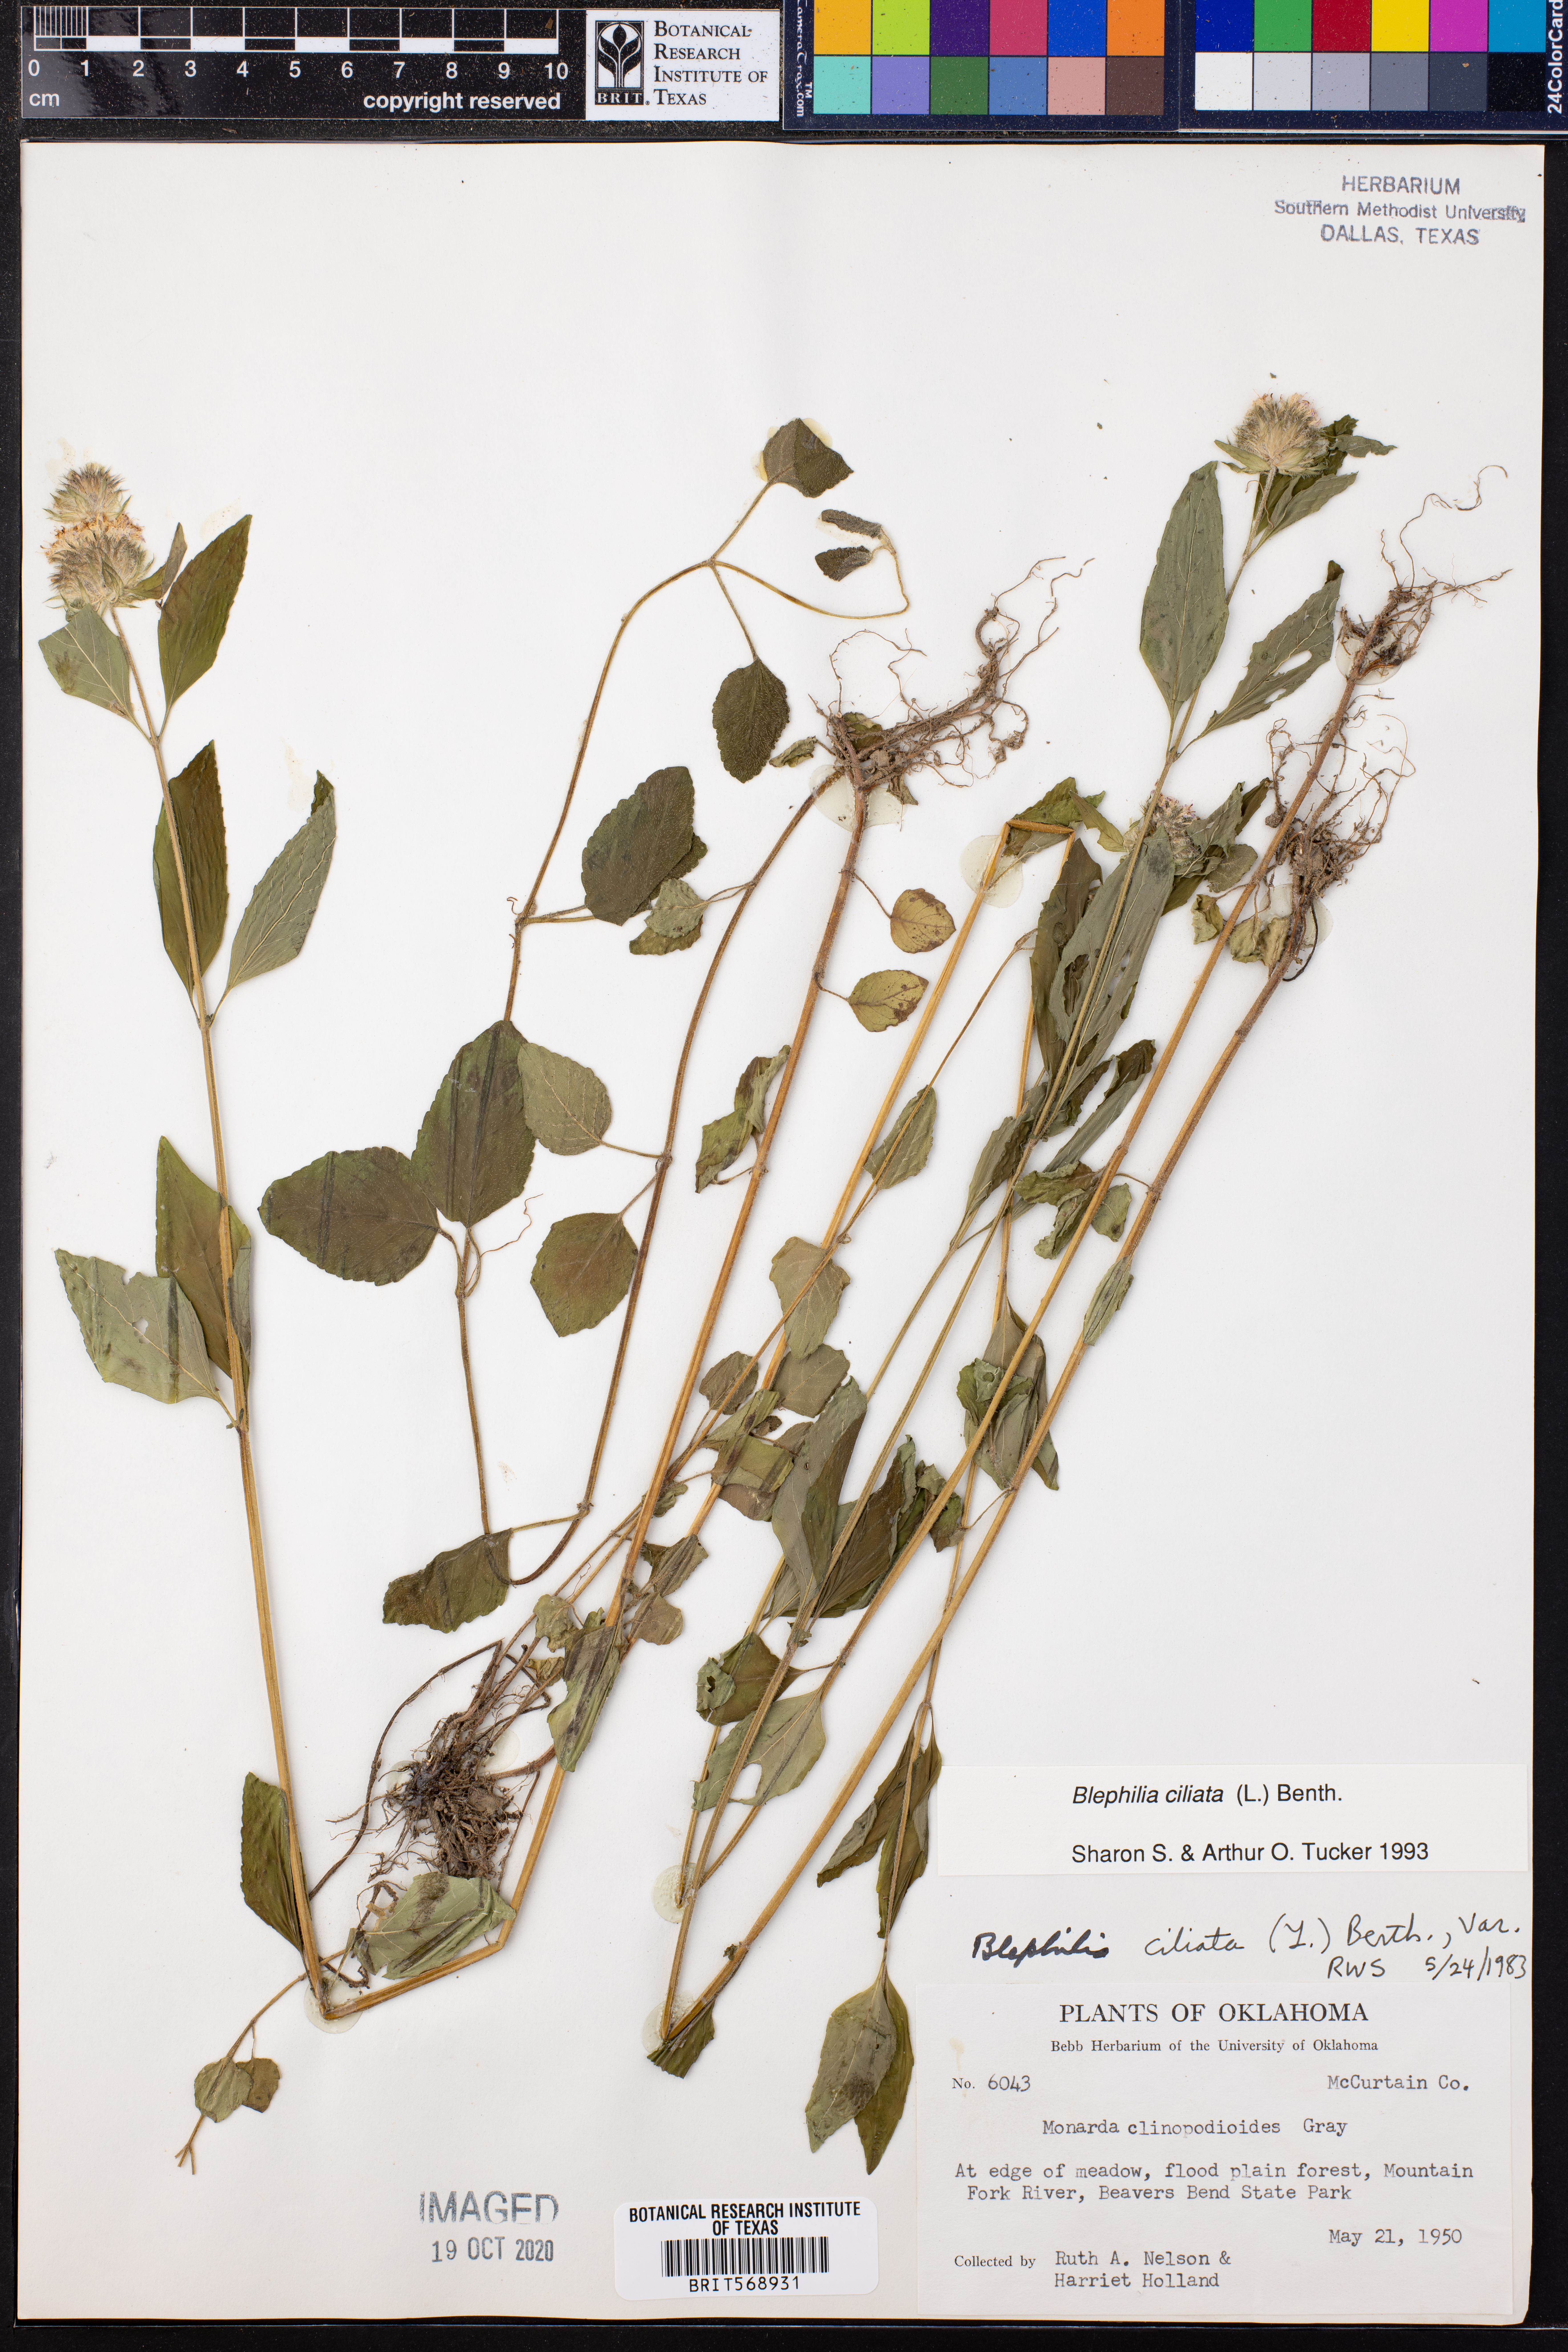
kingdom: Plantae
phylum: Tracheophyta
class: Magnoliopsida
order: Lamiales
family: Lamiaceae
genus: Blephilia
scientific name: Blephilia ciliata
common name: Downy blephilia
